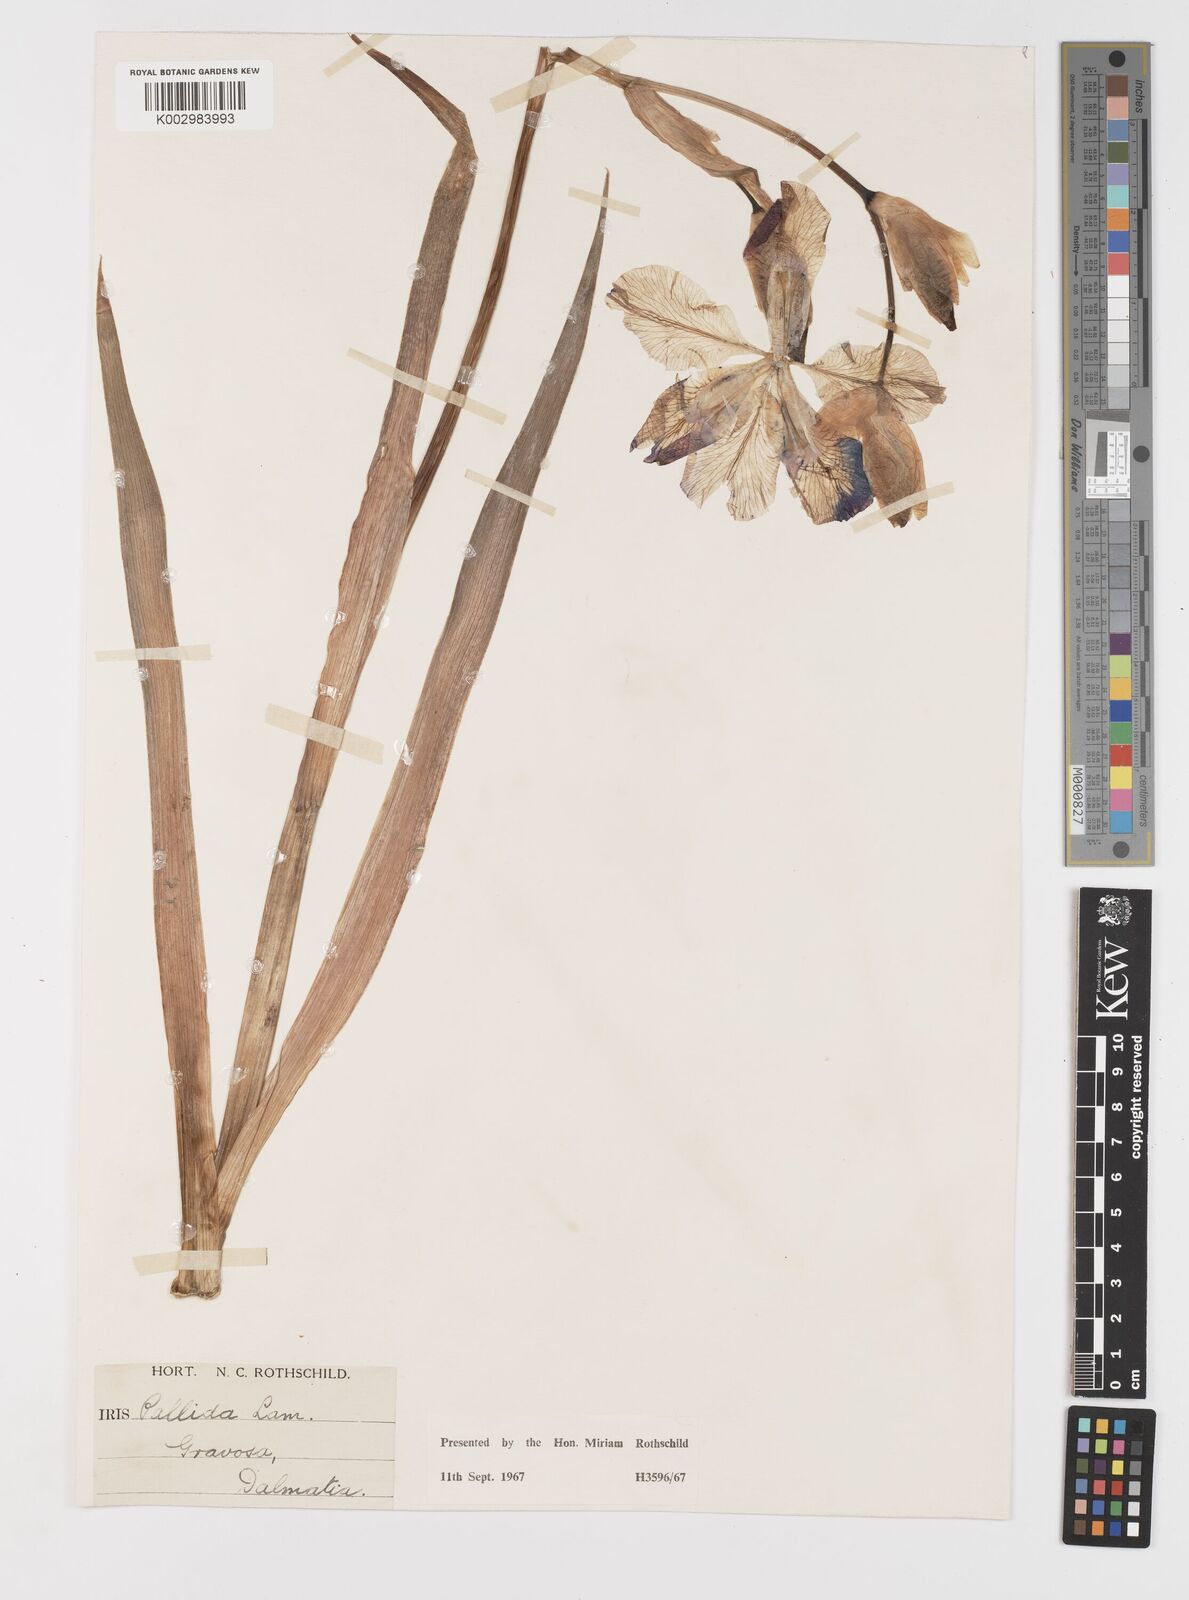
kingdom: Plantae
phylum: Tracheophyta
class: Liliopsida
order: Asparagales
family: Iridaceae
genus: Iris
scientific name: Iris halophila
